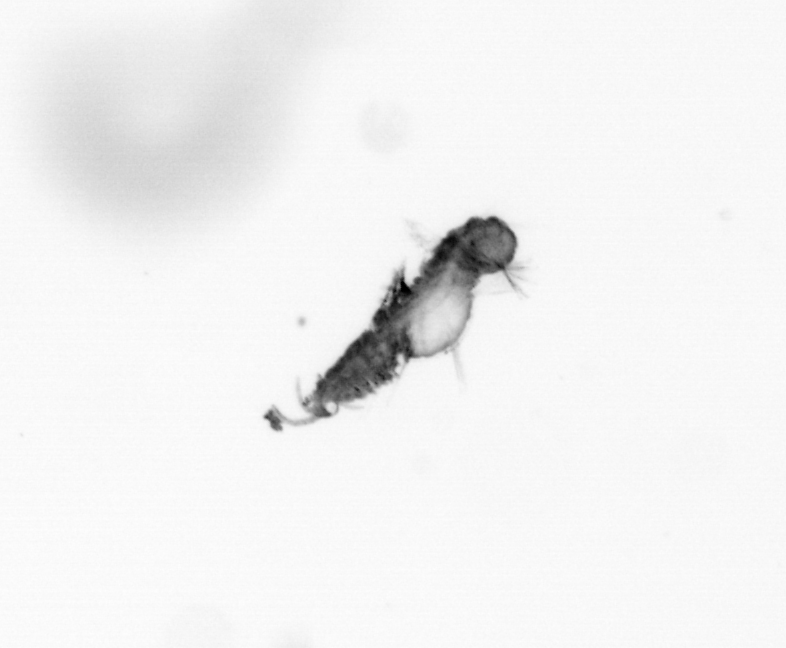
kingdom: Animalia
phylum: Annelida
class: Polychaeta
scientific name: Polychaeta
